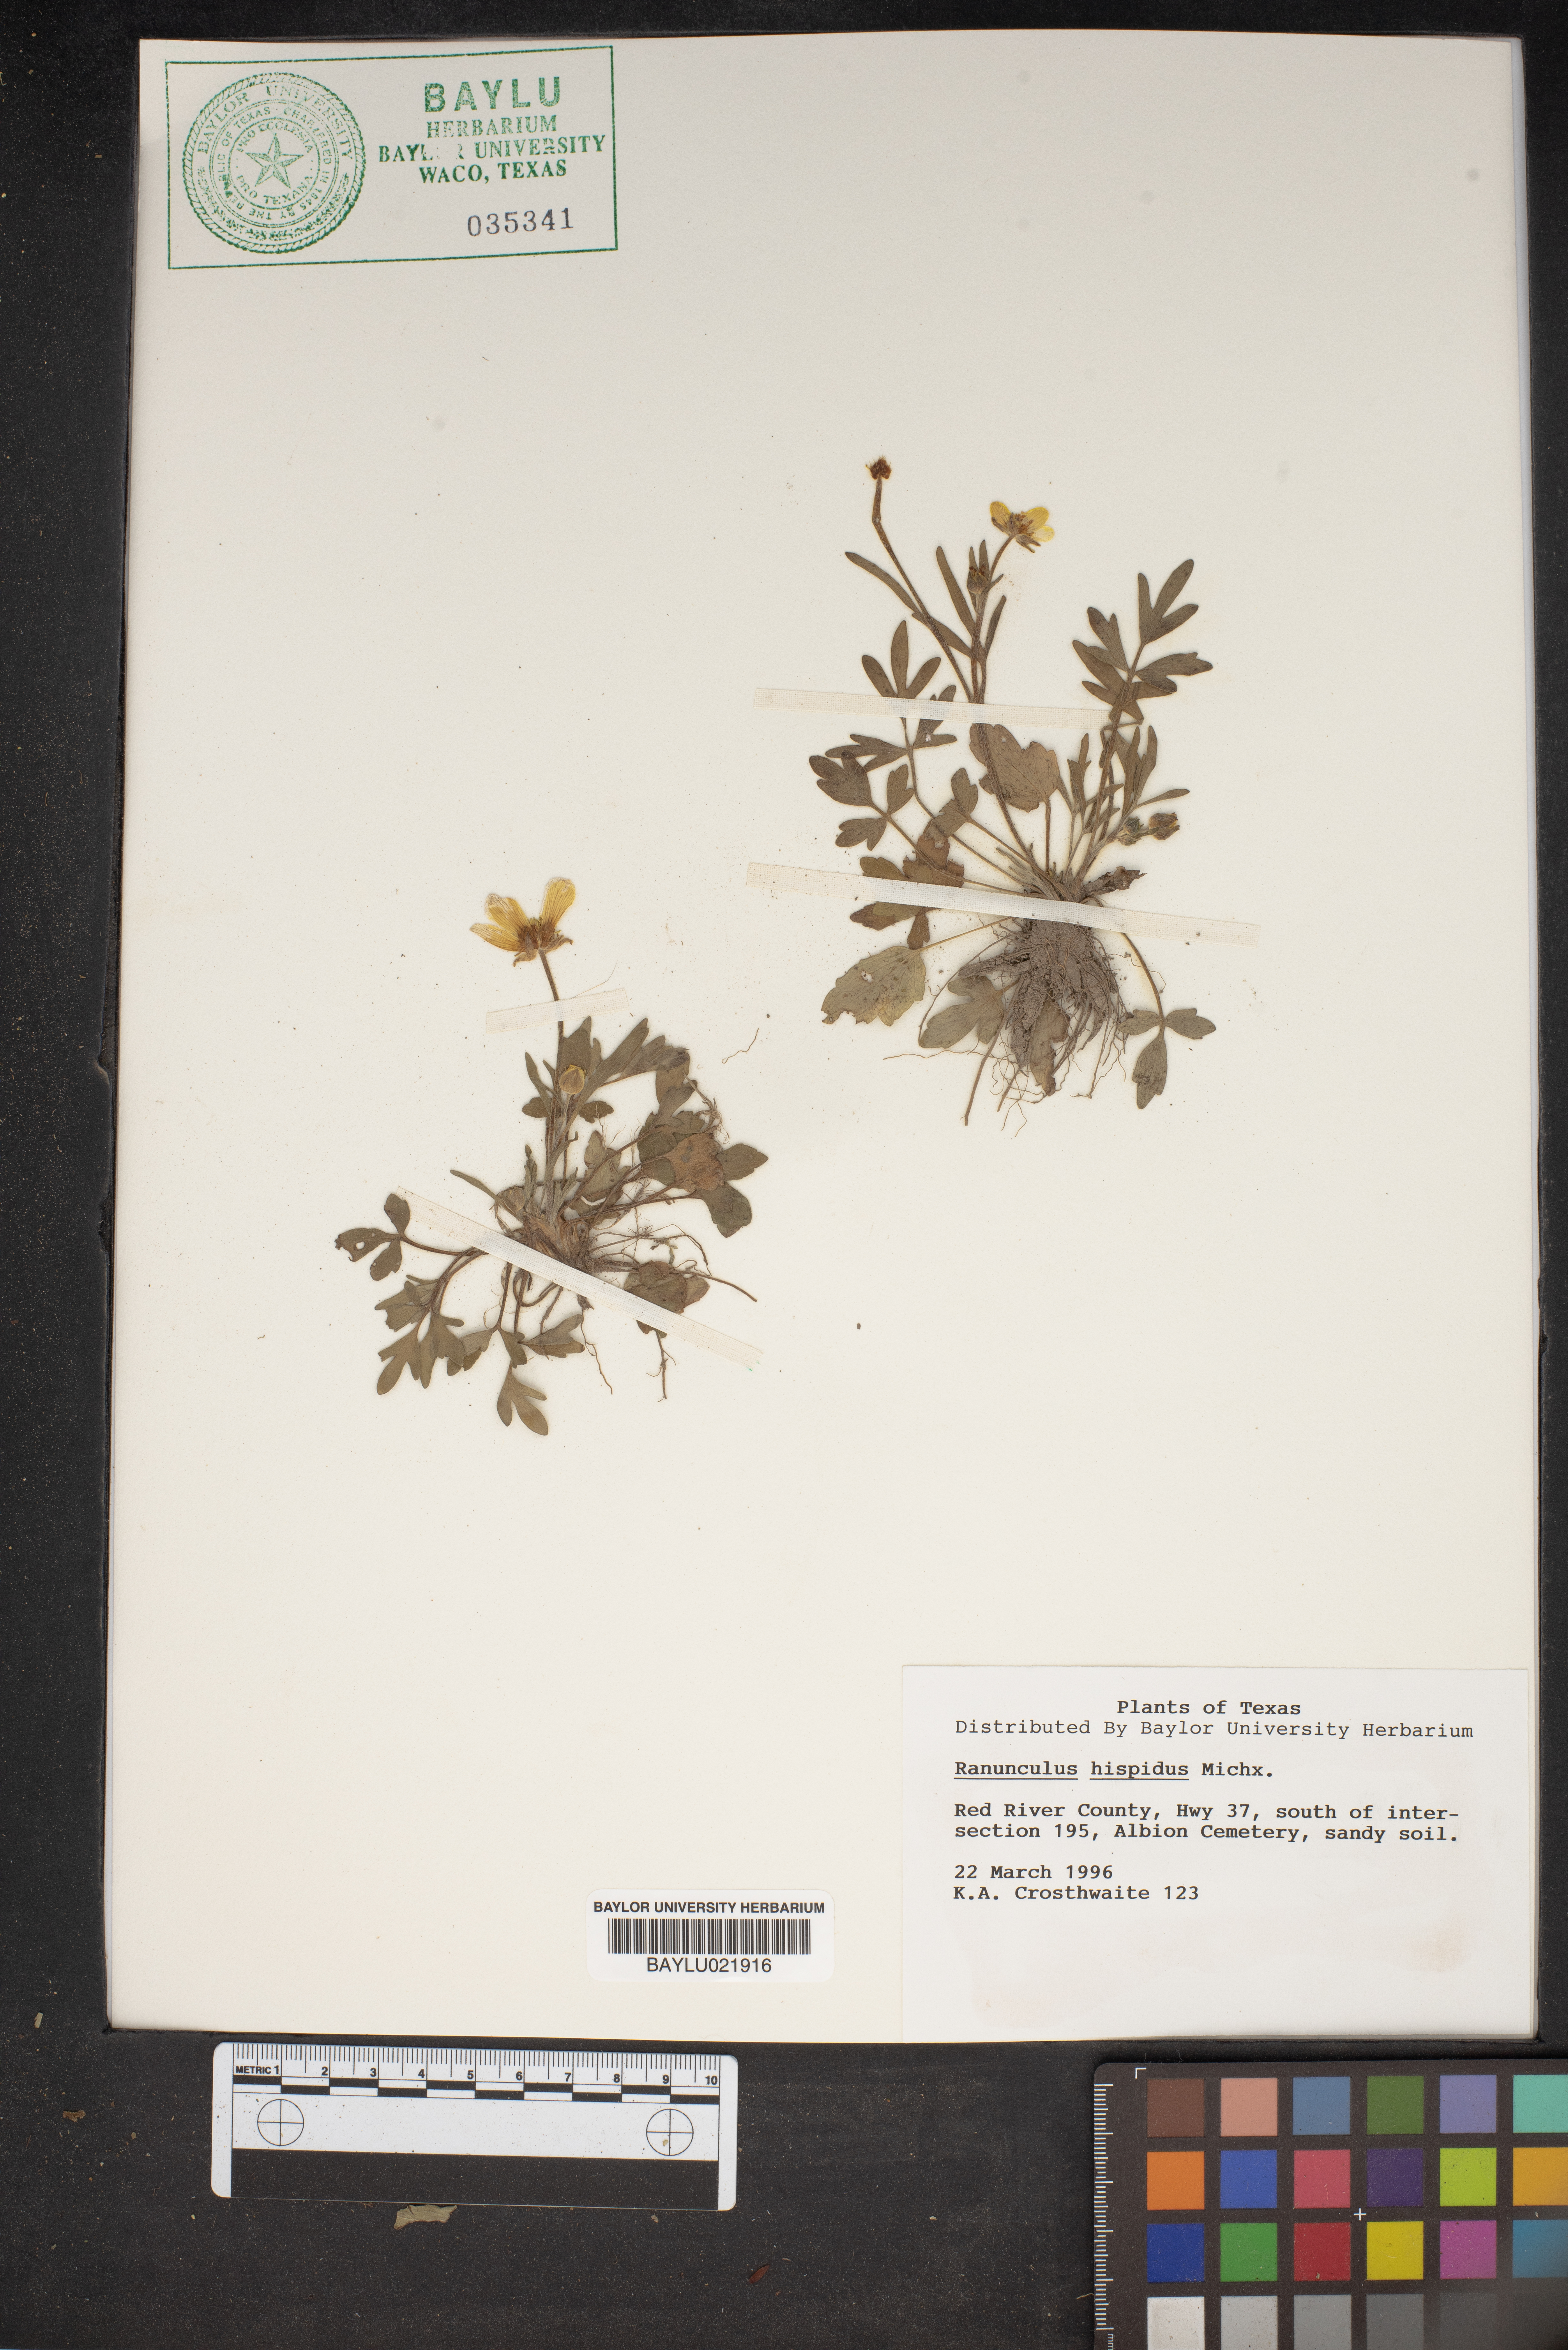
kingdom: Plantae
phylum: Tracheophyta
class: Magnoliopsida
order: Ranunculales
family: Ranunculaceae
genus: Ranunculus
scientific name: Ranunculus hispidus
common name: Bristly buttercup
